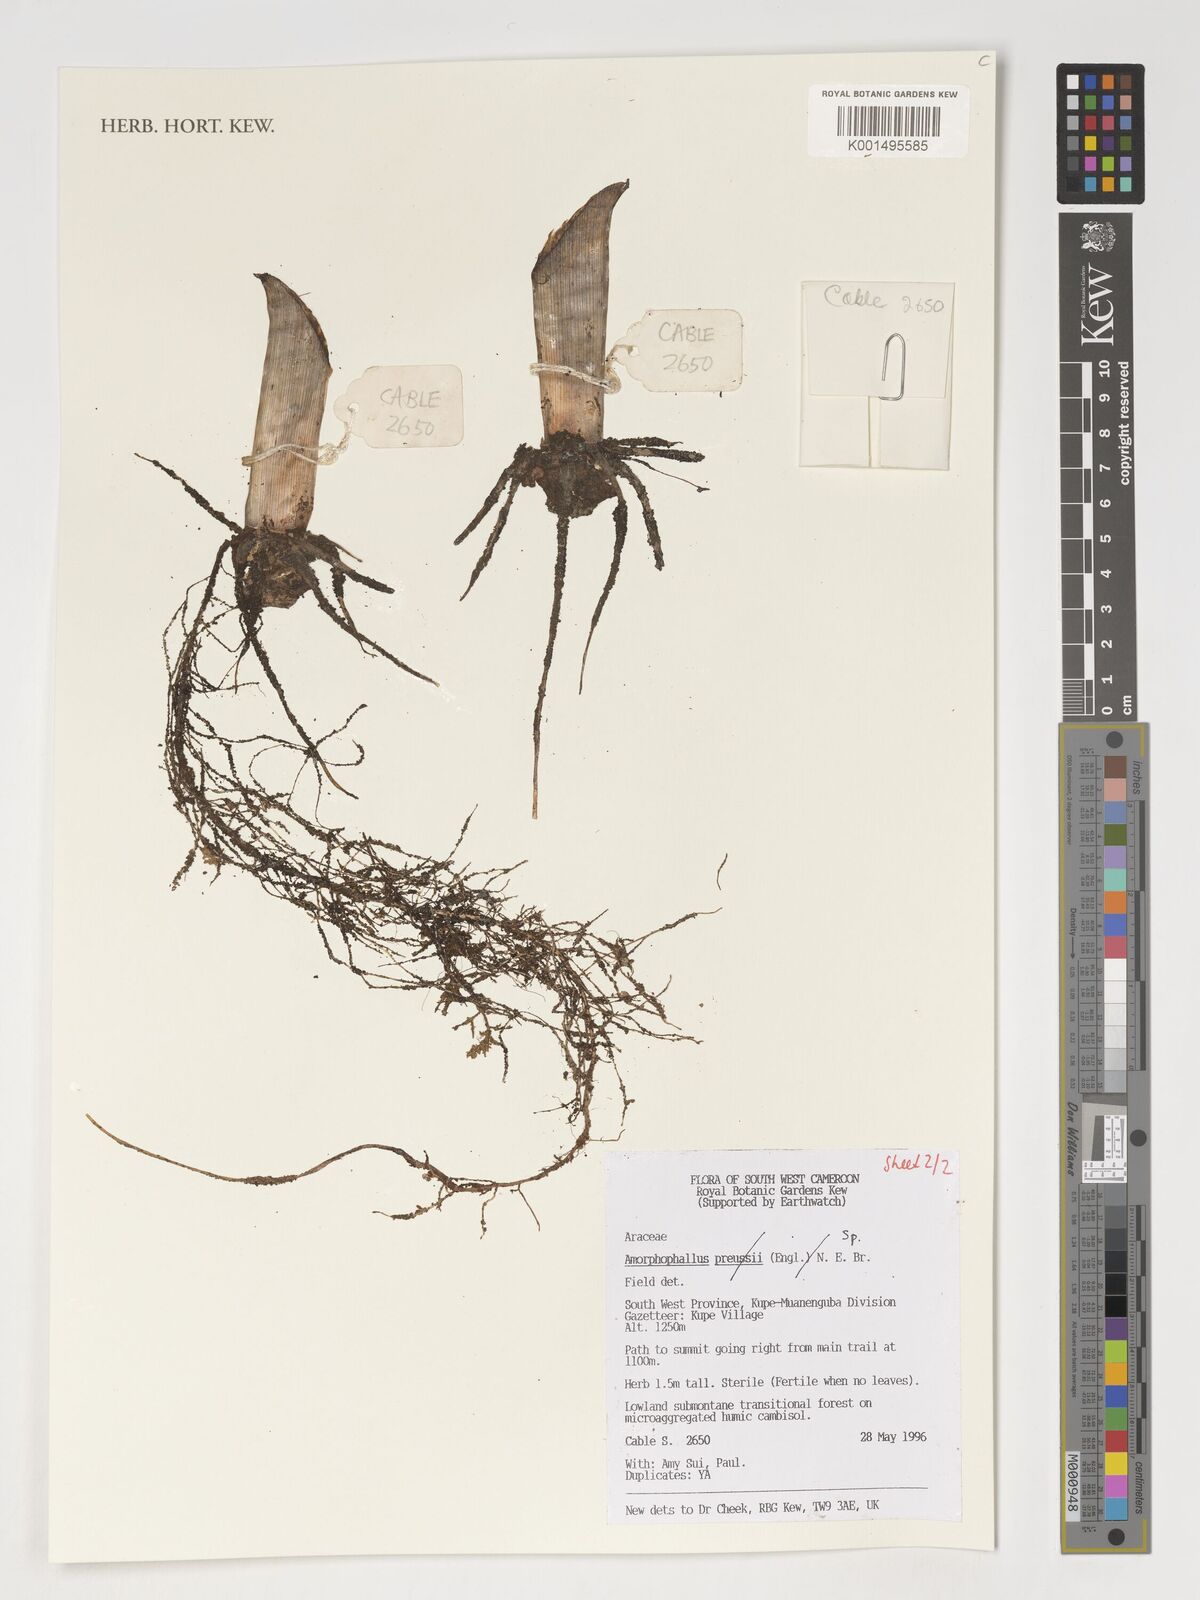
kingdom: Plantae
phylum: Tracheophyta
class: Liliopsida
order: Alismatales
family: Araceae
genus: Amorphophallus
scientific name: Amorphophallus
